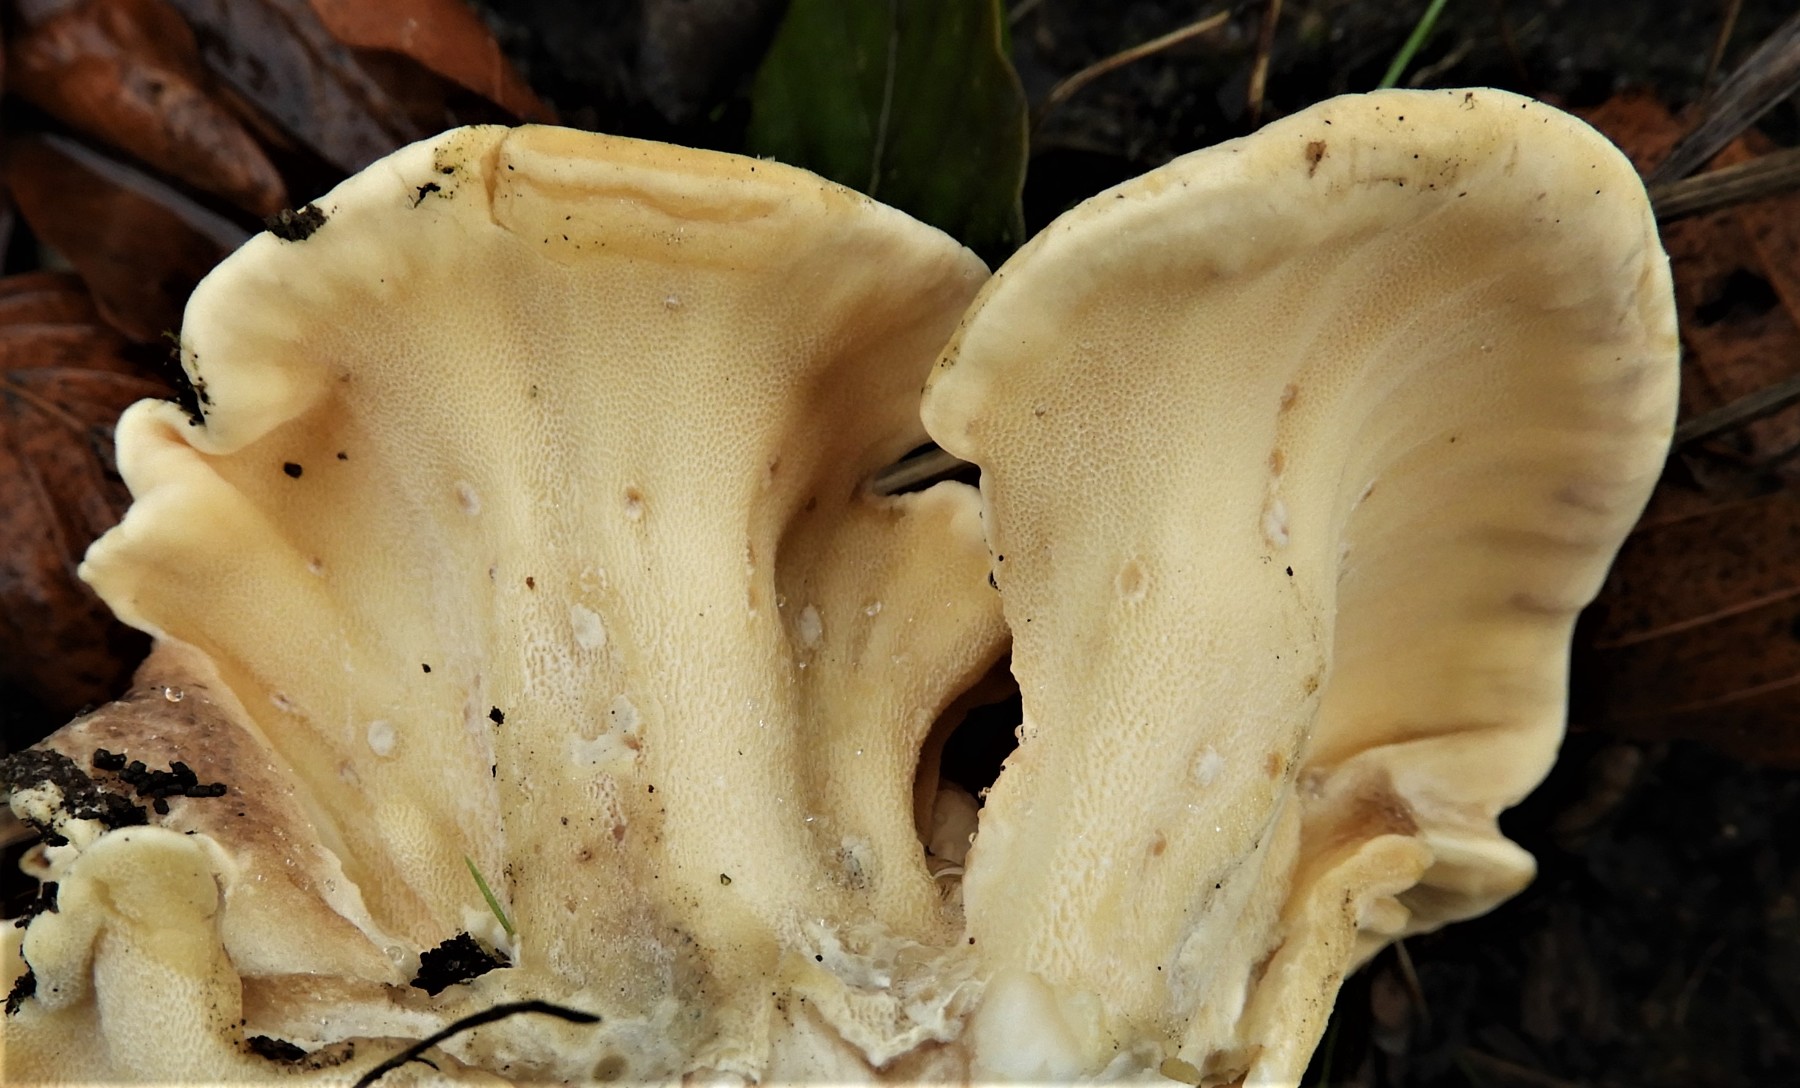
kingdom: Fungi
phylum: Basidiomycota
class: Agaricomycetes
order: Polyporales
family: Meripilaceae
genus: Meripilus
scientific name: Meripilus giganteus
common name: kæmpeporesvamp
